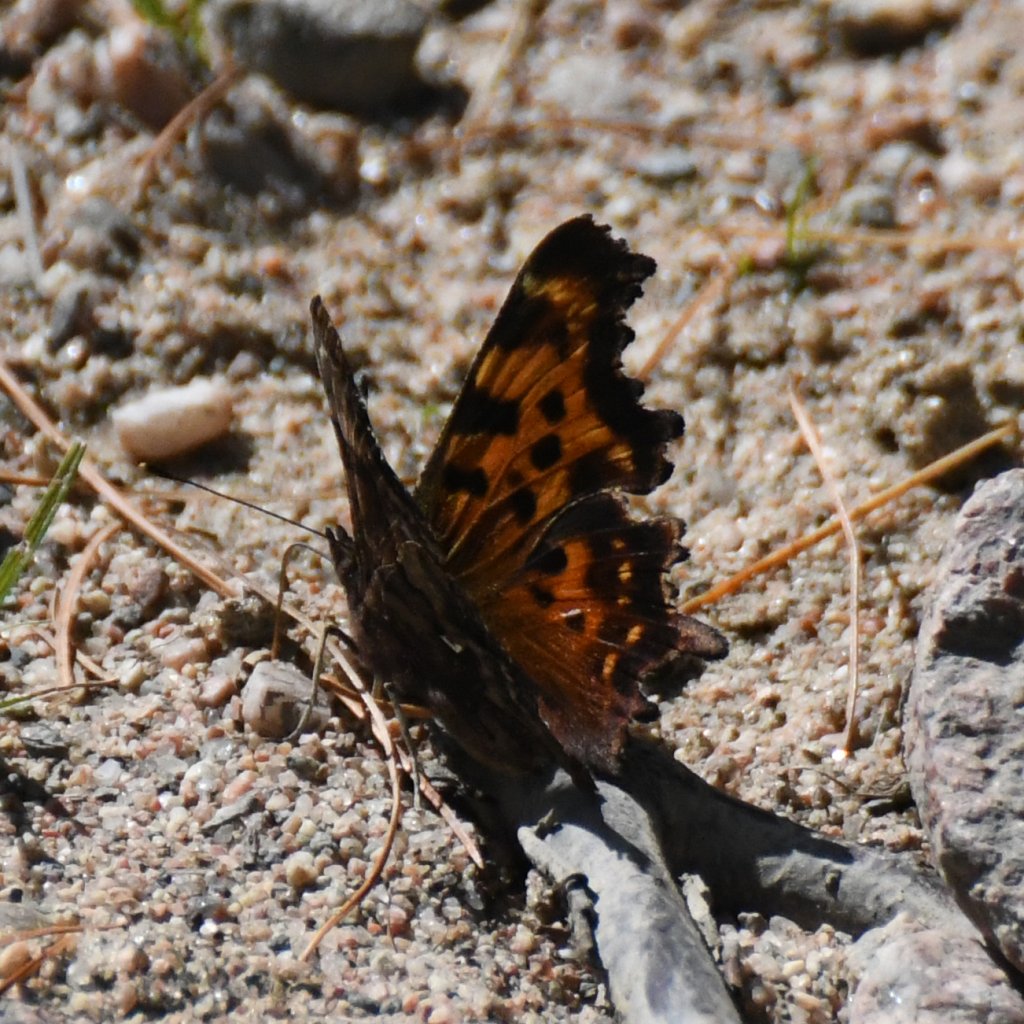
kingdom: Animalia
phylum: Arthropoda
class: Insecta
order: Lepidoptera
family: Nymphalidae
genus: Polygonia
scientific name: Polygonia faunus
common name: Green Comma
